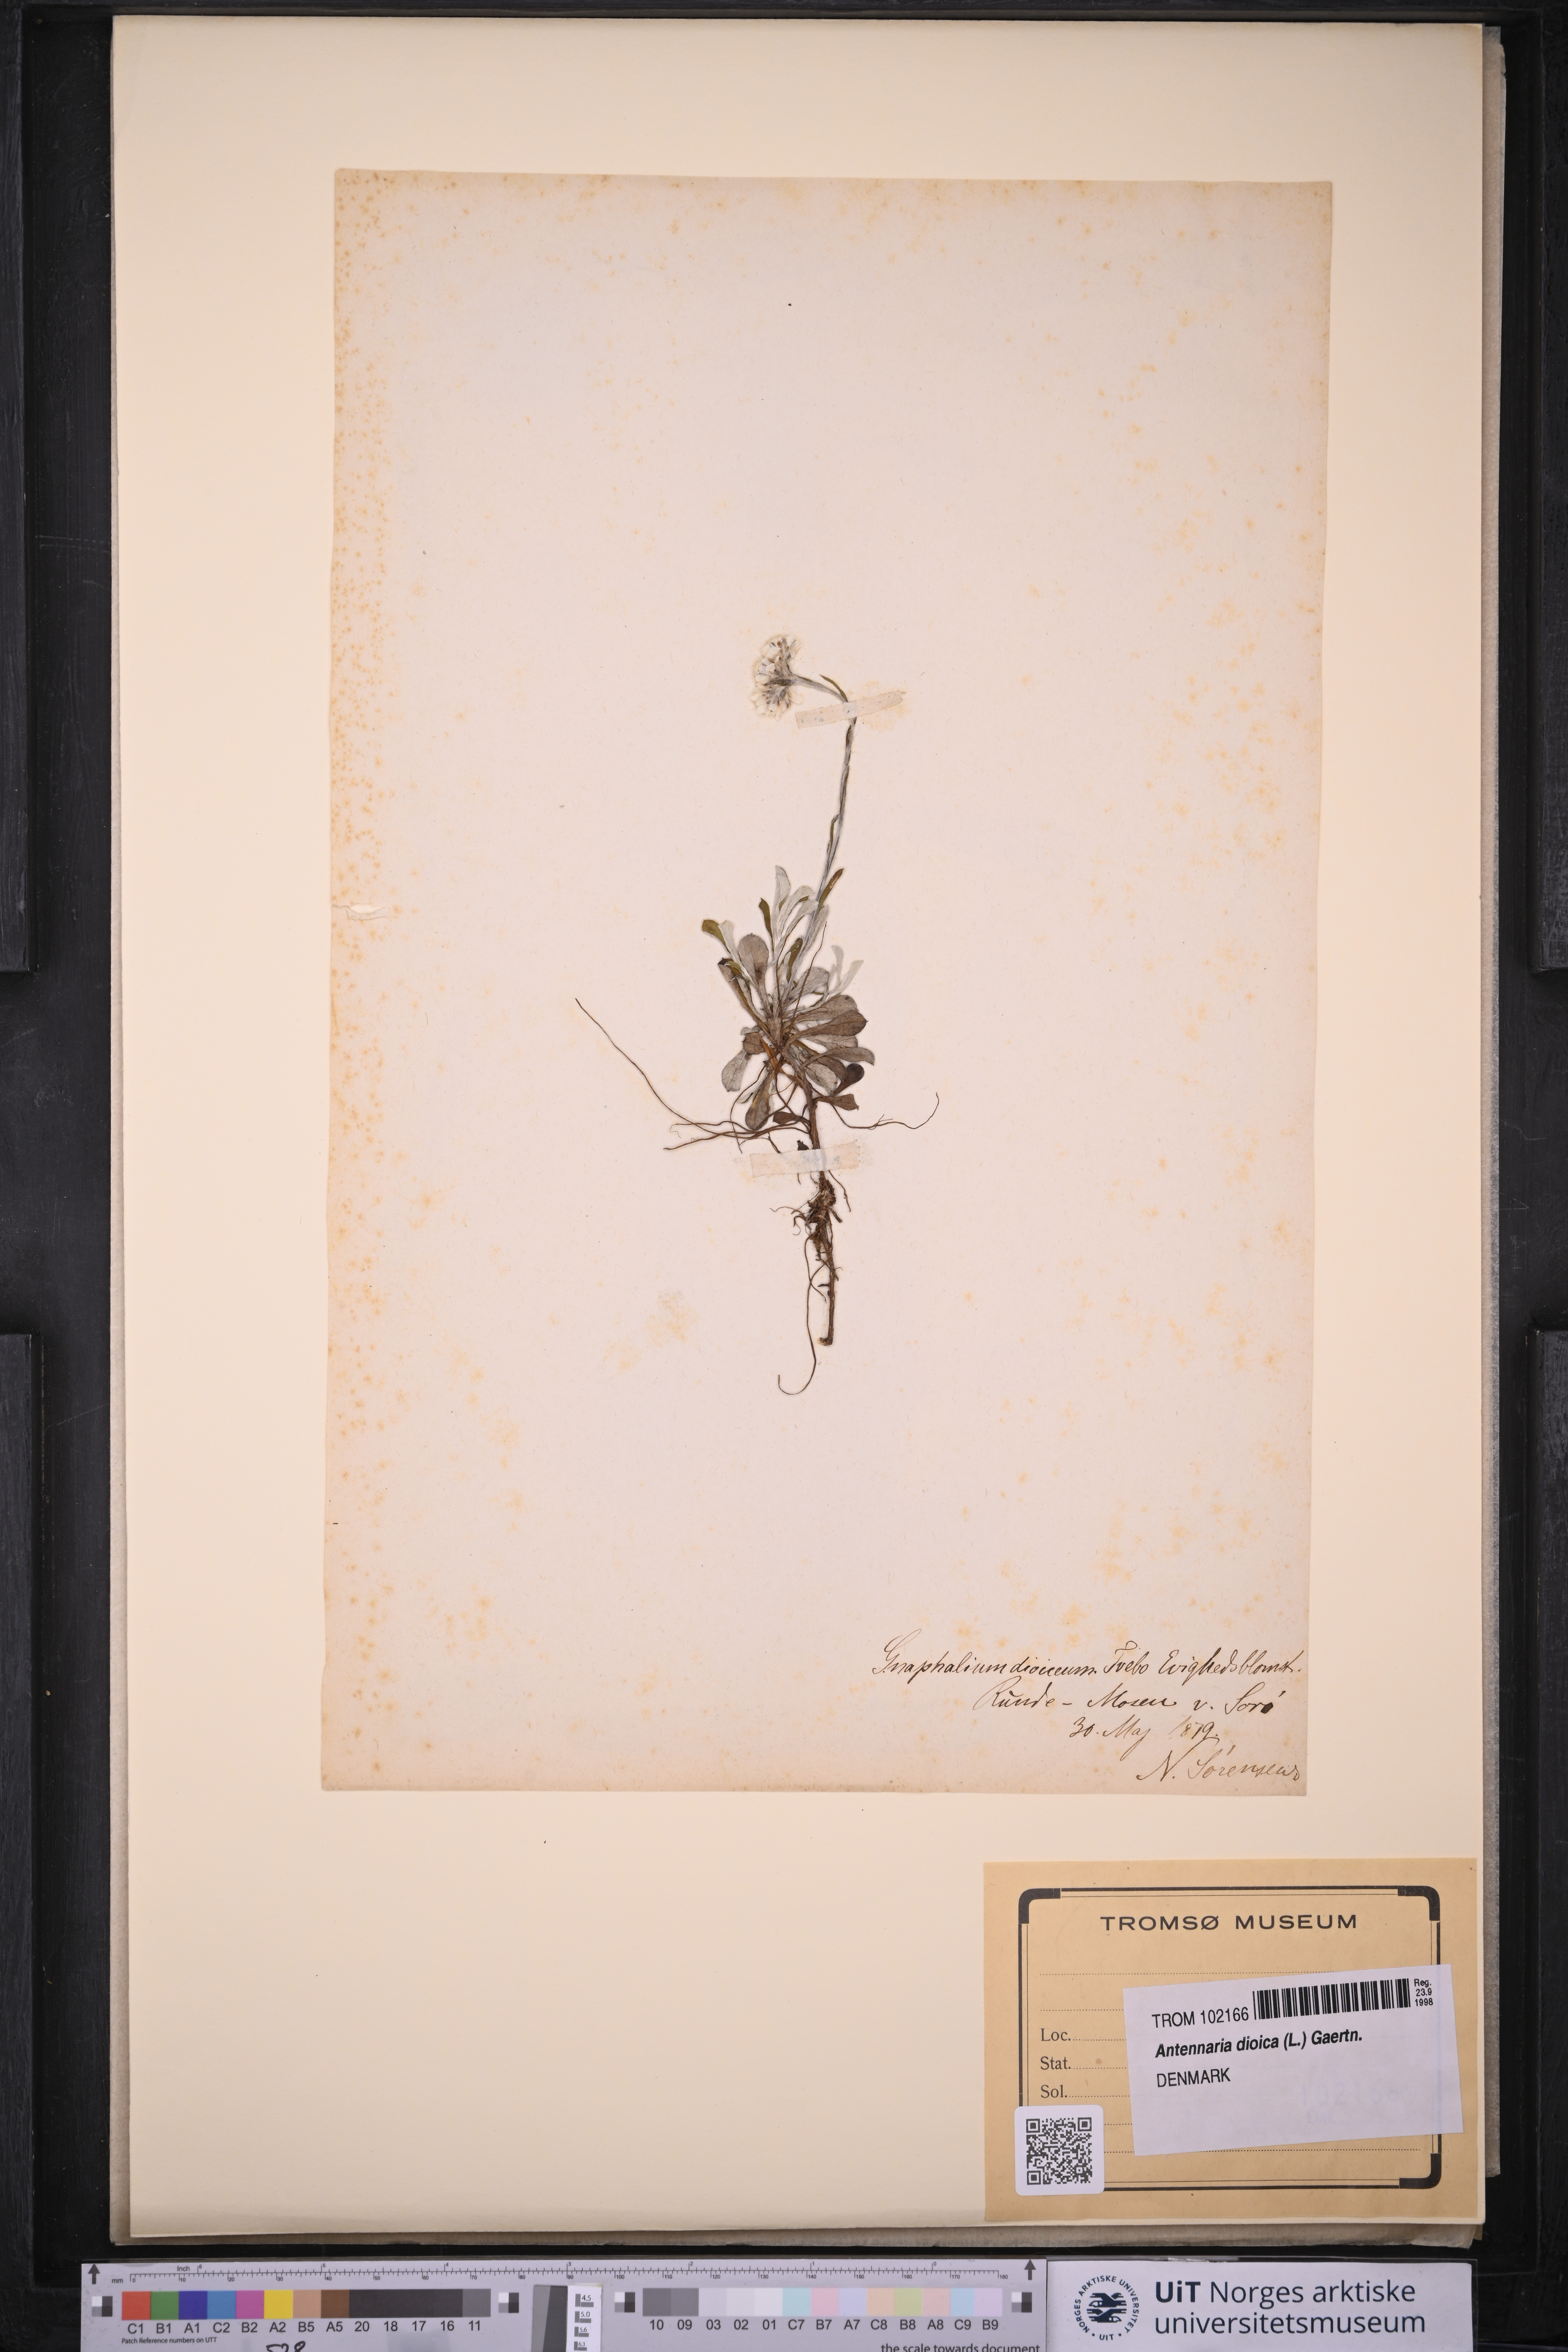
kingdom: Plantae
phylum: Tracheophyta
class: Magnoliopsida
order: Asterales
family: Asteraceae
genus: Antennaria
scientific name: Antennaria dioica
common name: Mountain everlasting
